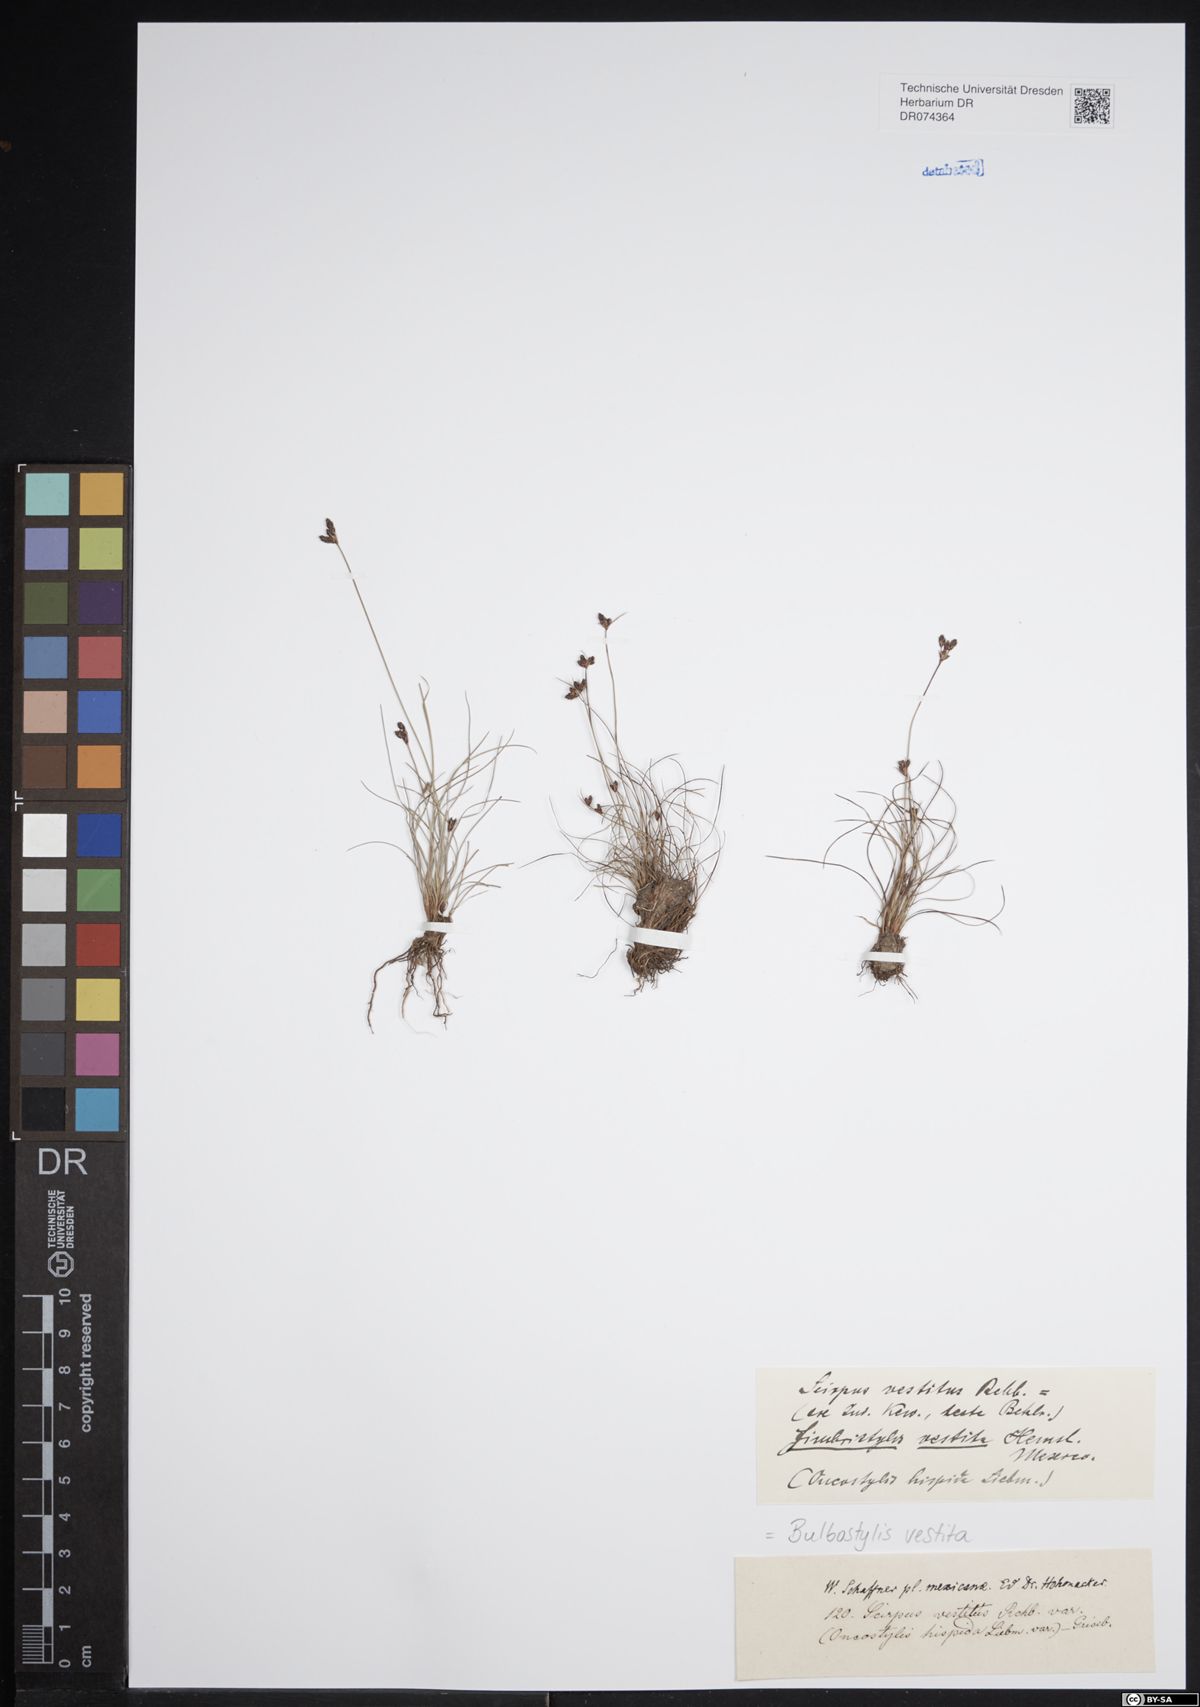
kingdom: Plantae
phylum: Tracheophyta
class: Liliopsida
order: Poales
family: Cyperaceae
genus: Bulbostylis
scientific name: Bulbostylis vestita
